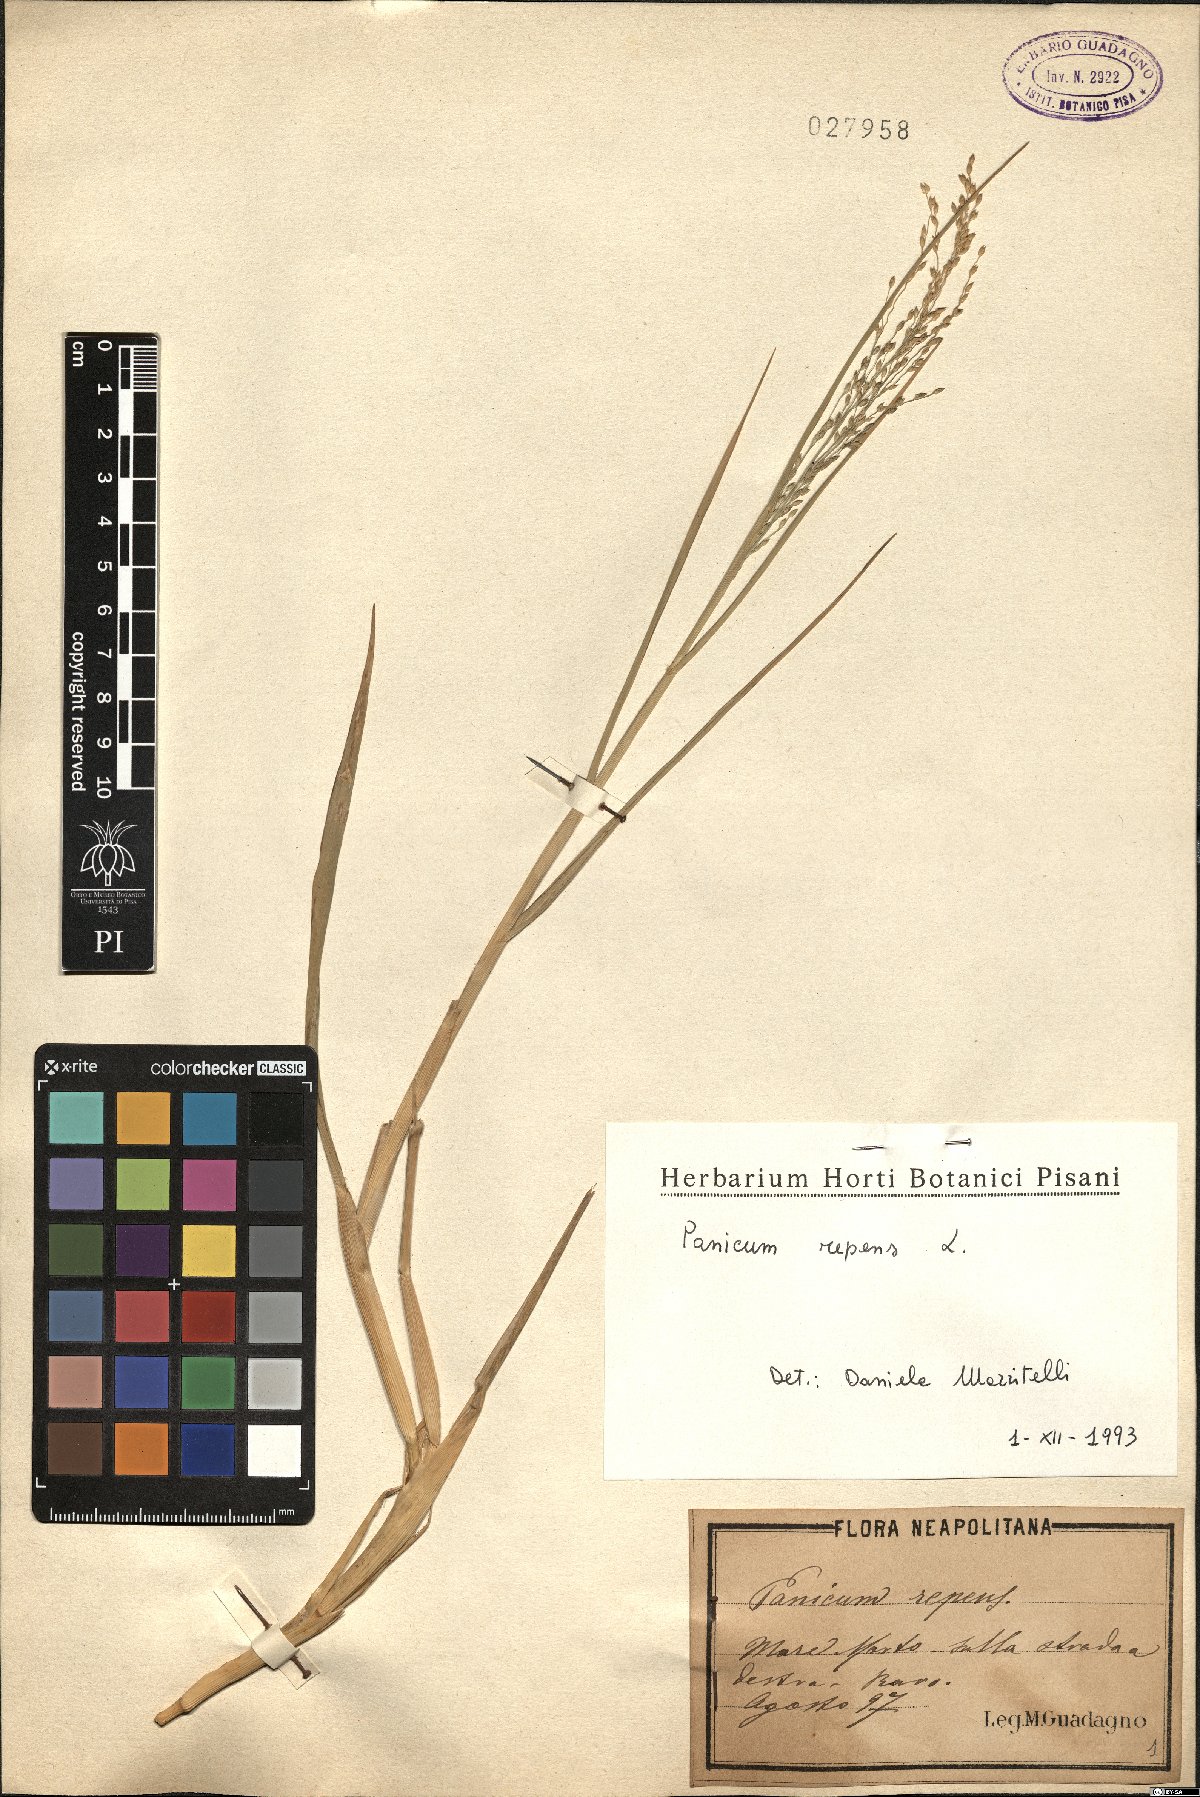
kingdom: Plantae
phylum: Tracheophyta
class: Liliopsida
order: Poales
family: Poaceae
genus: Panicum
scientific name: Panicum repens
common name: Torpedo grass
